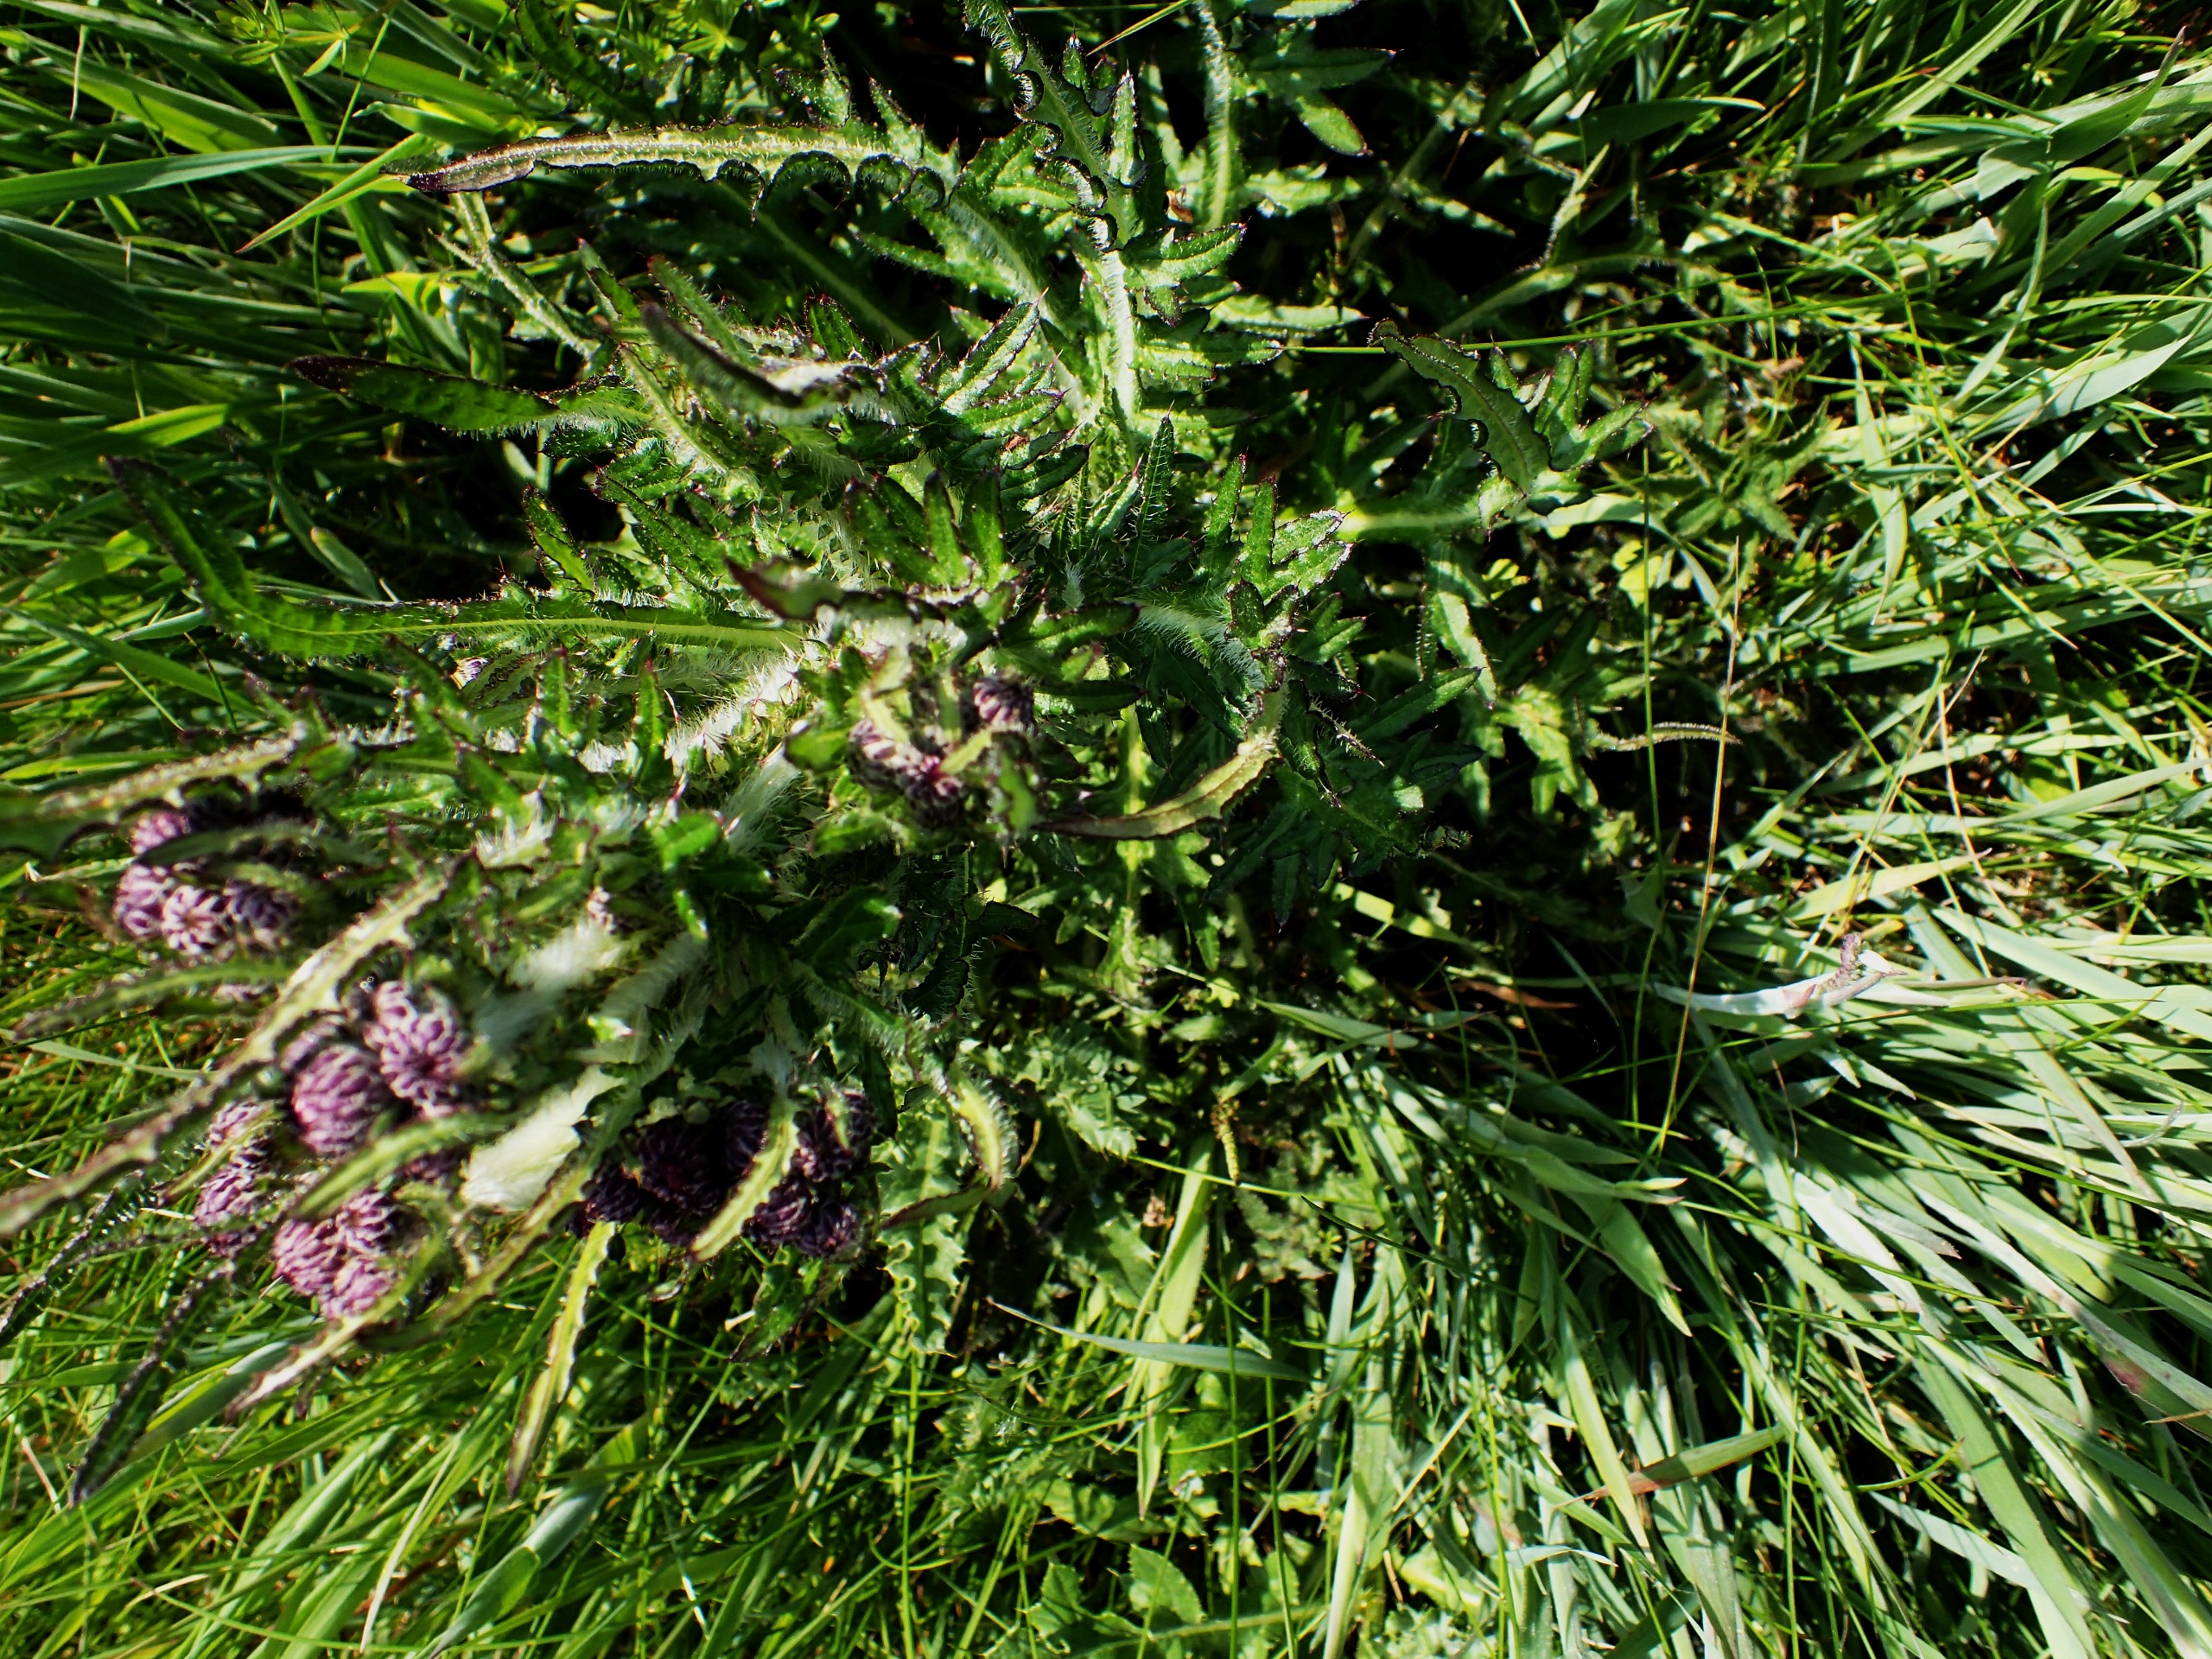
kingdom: Plantae
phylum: Tracheophyta
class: Magnoliopsida
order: Asterales
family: Asteraceae
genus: Cirsium
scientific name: Cirsium palustre
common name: Kær-tidsel
